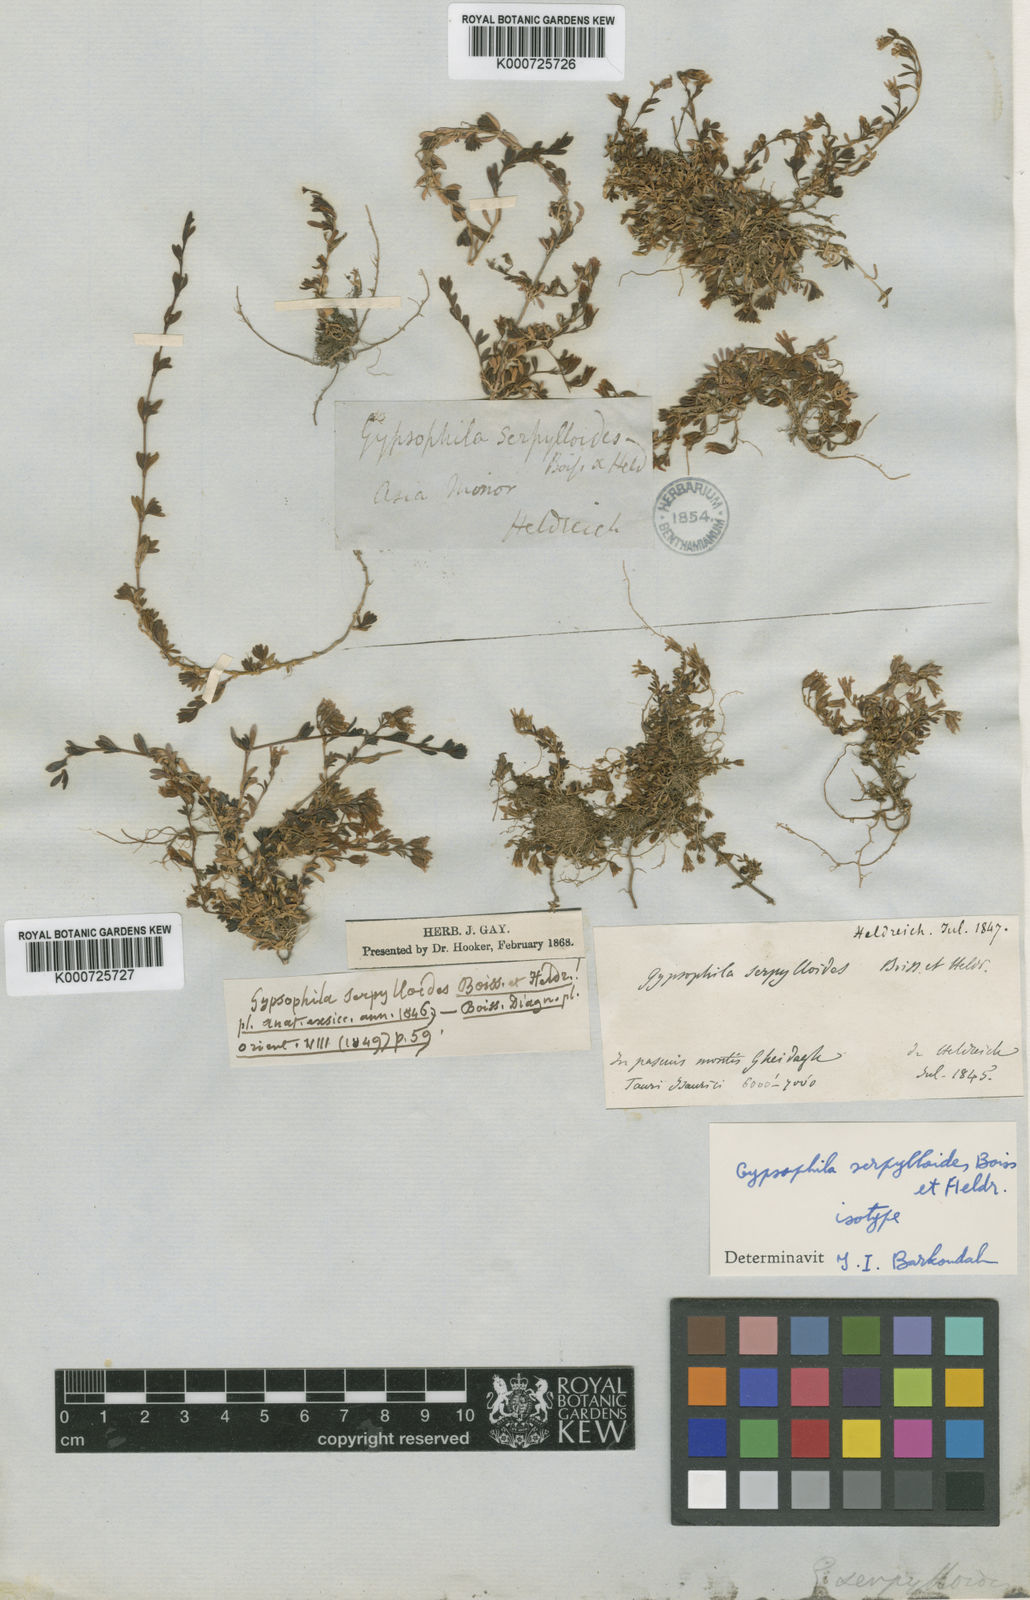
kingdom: Plantae
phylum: Tracheophyta
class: Magnoliopsida
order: Caryophyllales
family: Caryophyllaceae
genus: Gypsophila
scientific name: Gypsophila serpylloides
